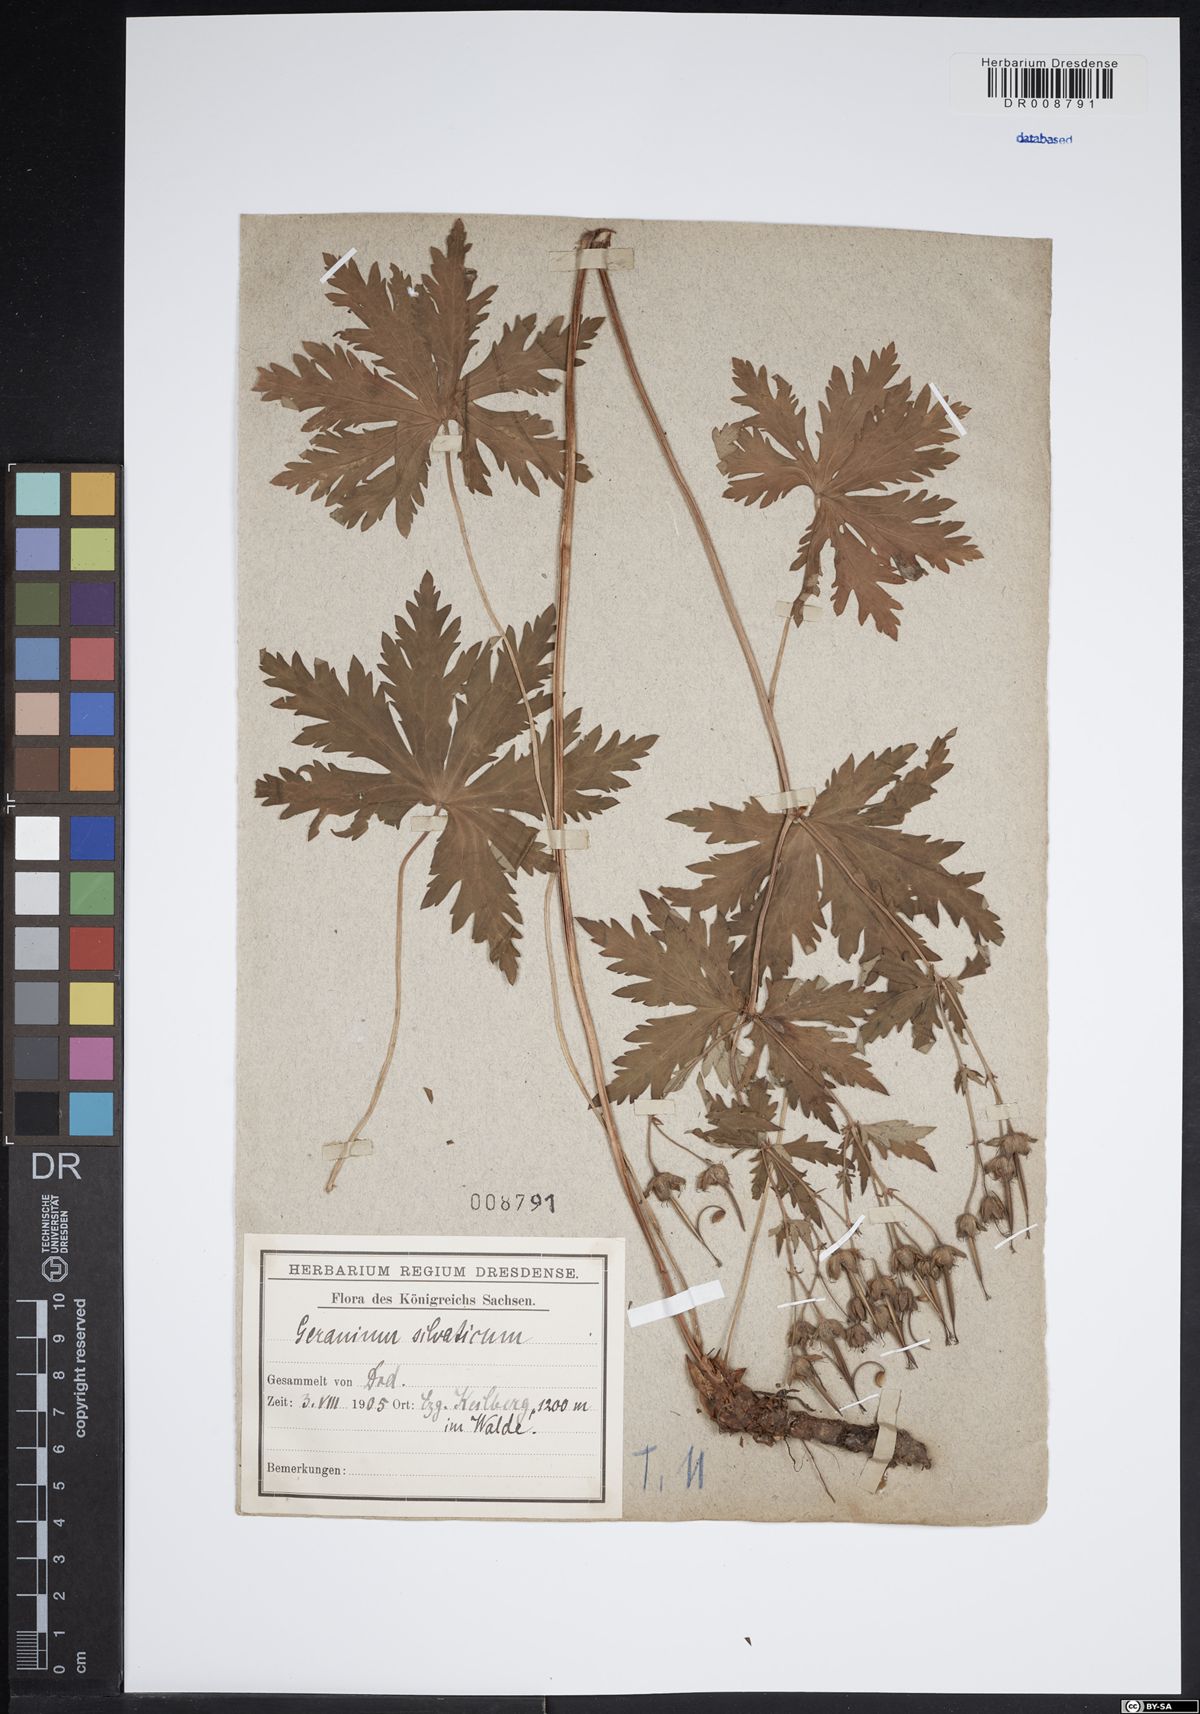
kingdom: Plantae
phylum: Tracheophyta
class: Magnoliopsida
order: Geraniales
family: Geraniaceae
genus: Geranium
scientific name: Geranium sylvaticum
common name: Wood crane's-bill
